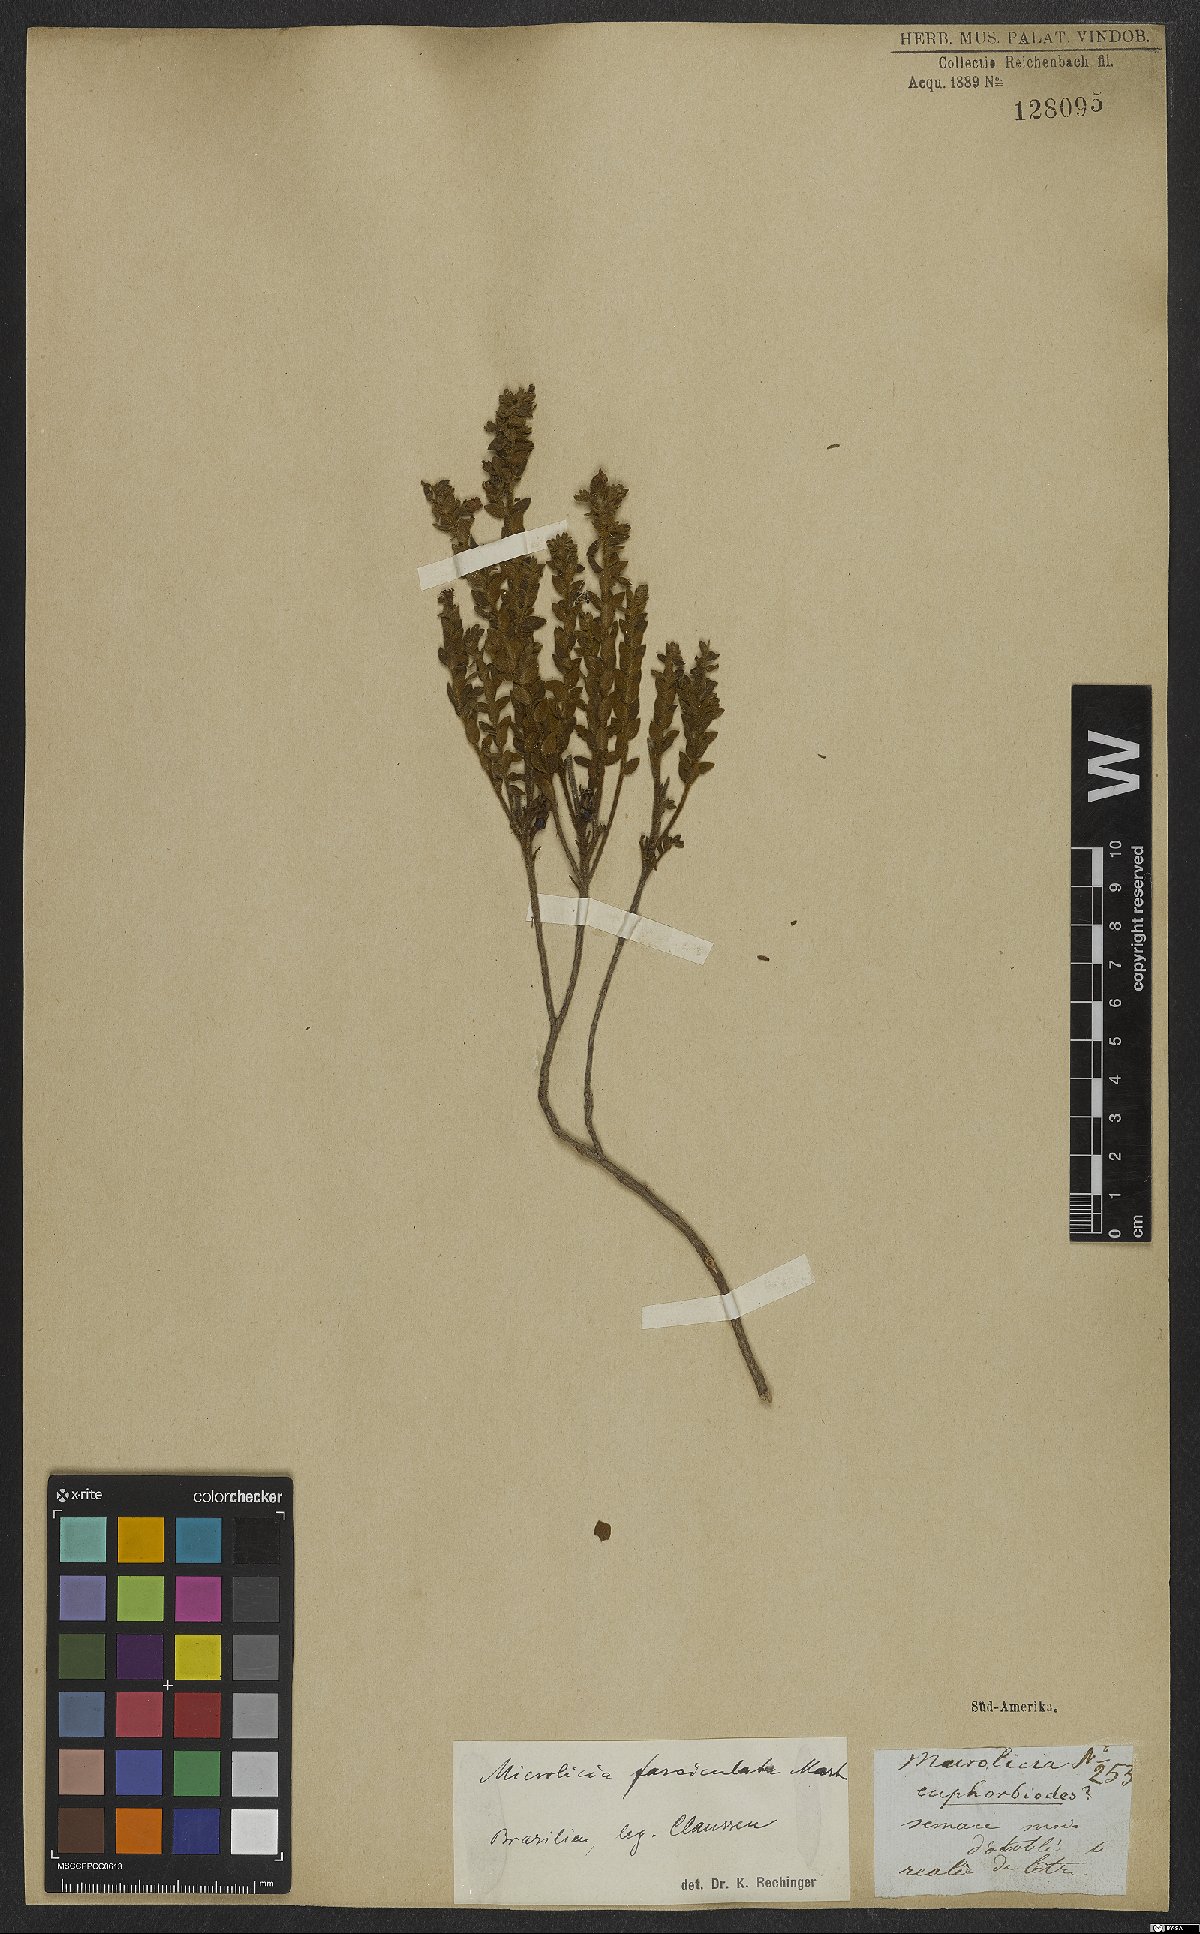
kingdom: Plantae
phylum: Tracheophyta
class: Magnoliopsida
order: Myrtales
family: Melastomataceae
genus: Microlicia
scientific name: Microlicia fasciculata
